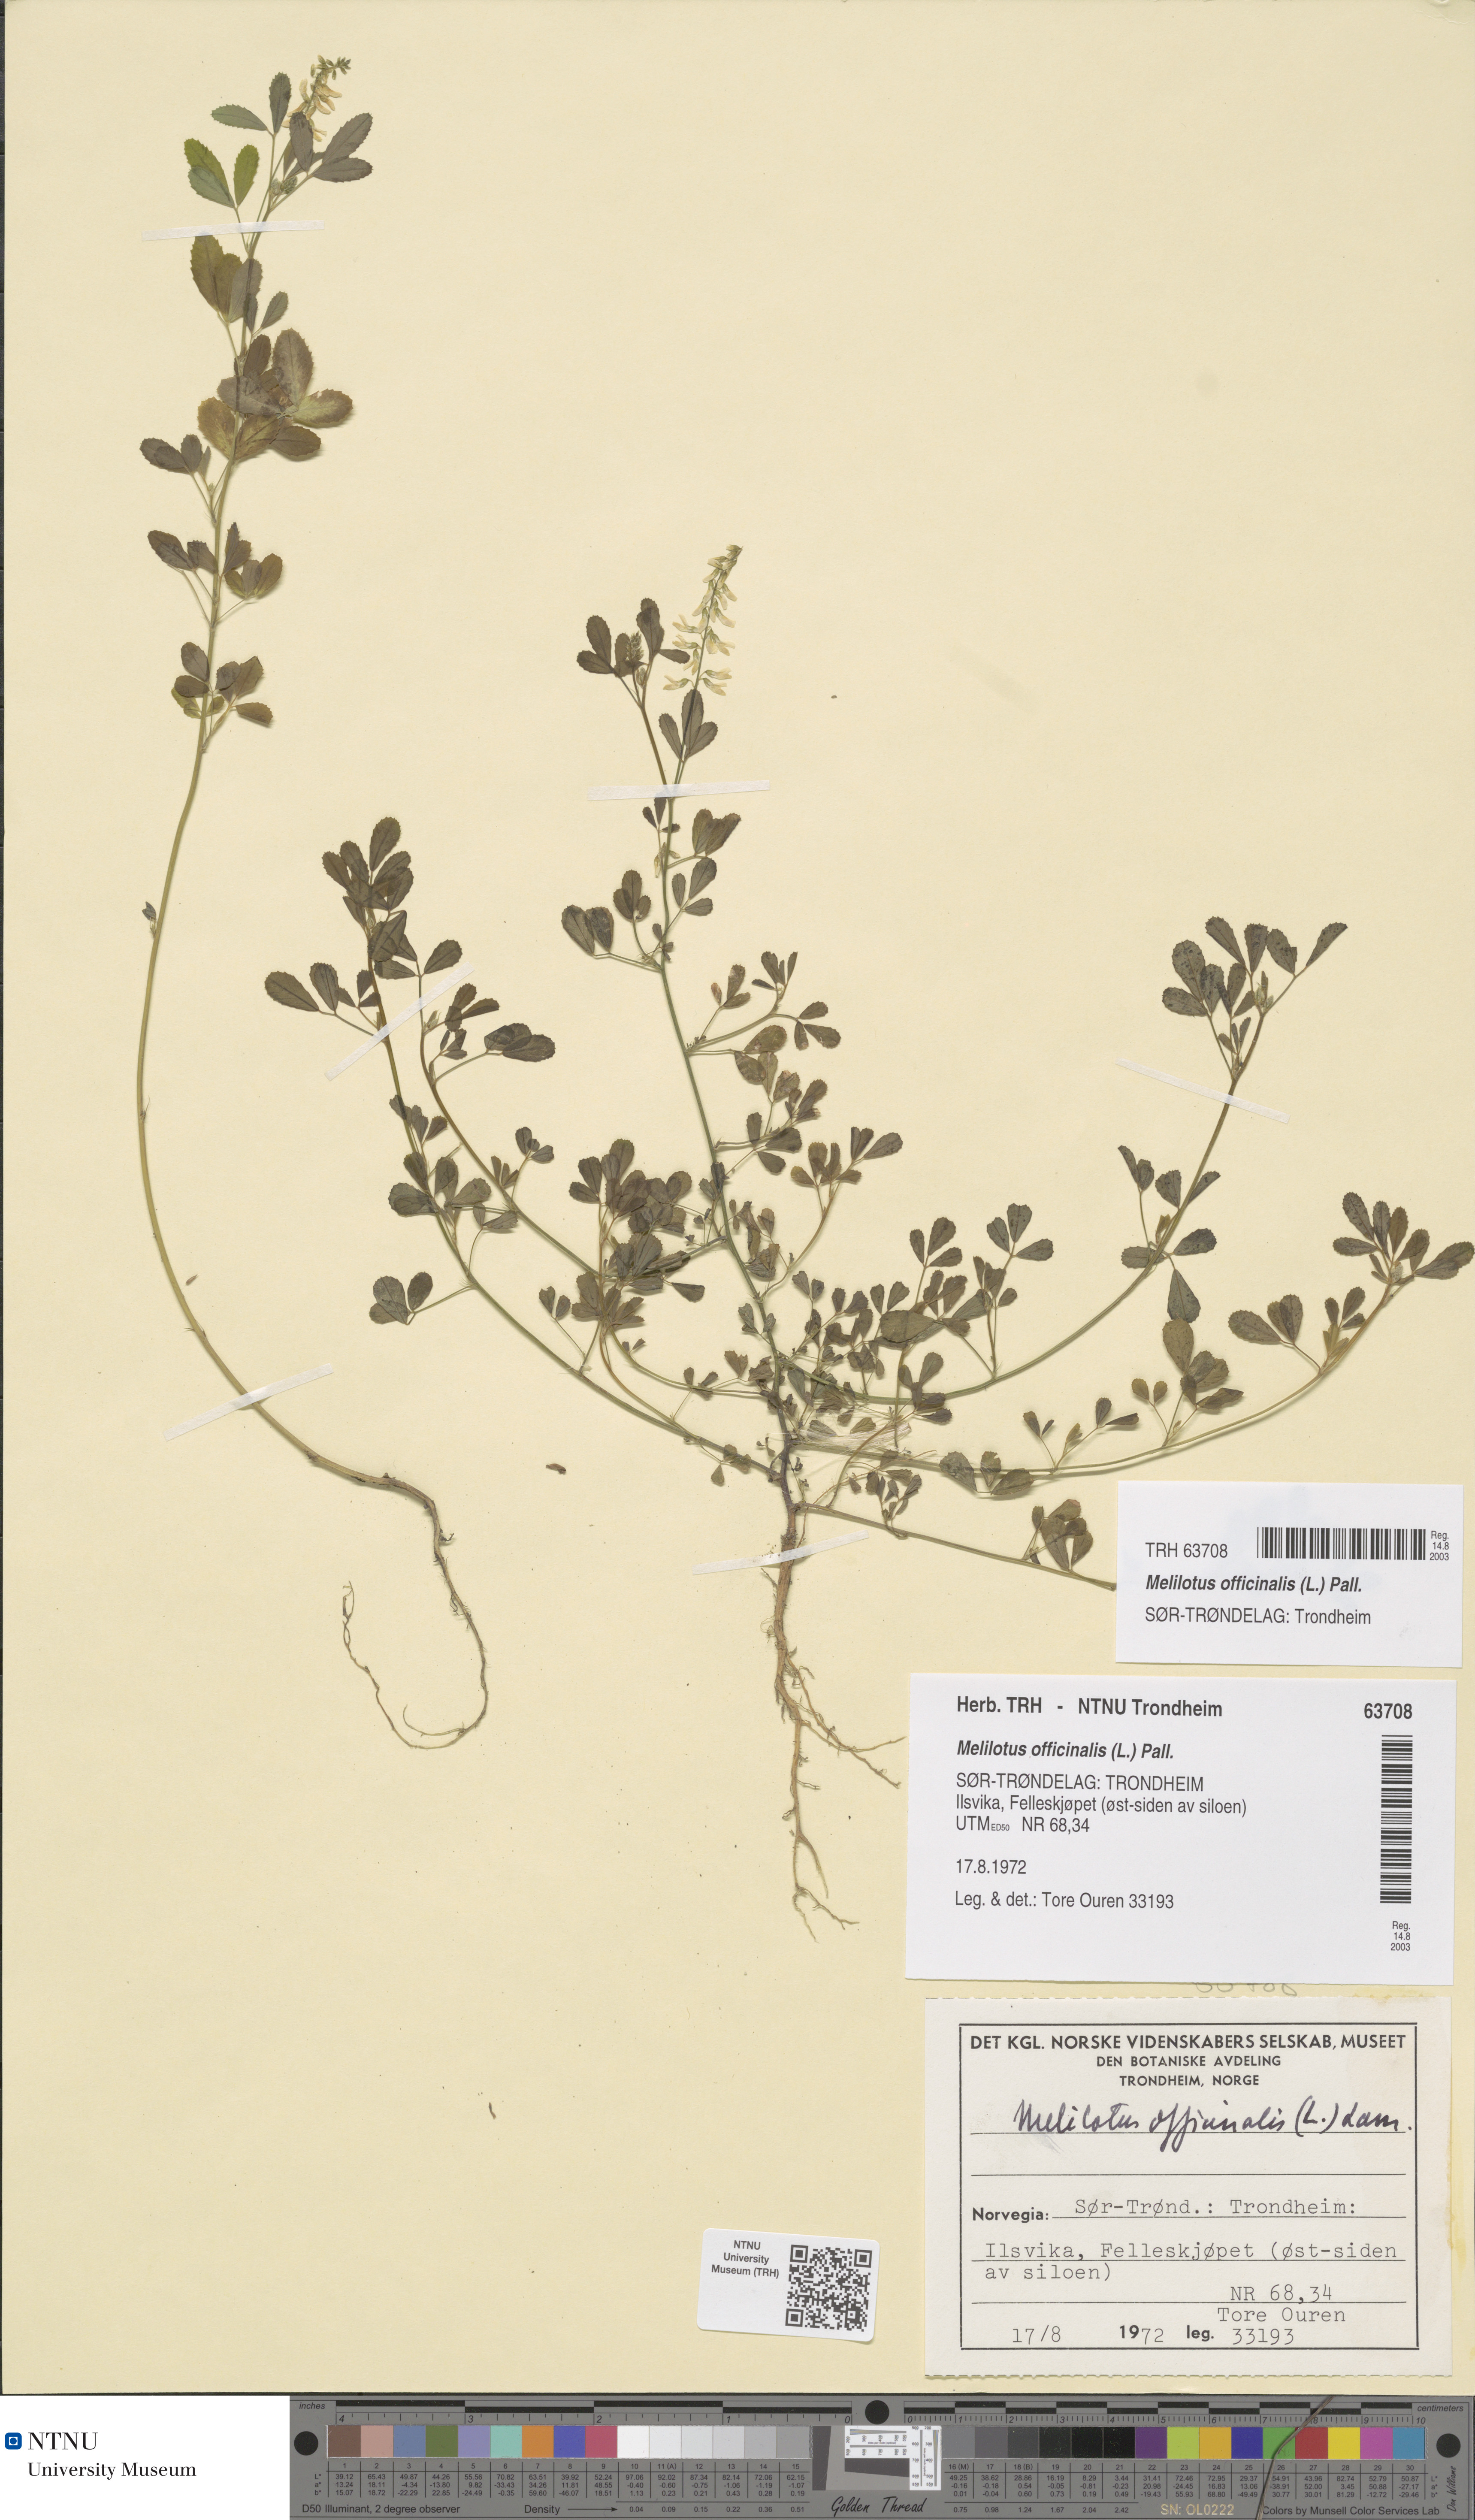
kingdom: Plantae
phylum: Tracheophyta
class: Magnoliopsida
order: Fabales
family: Fabaceae
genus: Melilotus
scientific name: Melilotus officinalis
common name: Sweetclover
